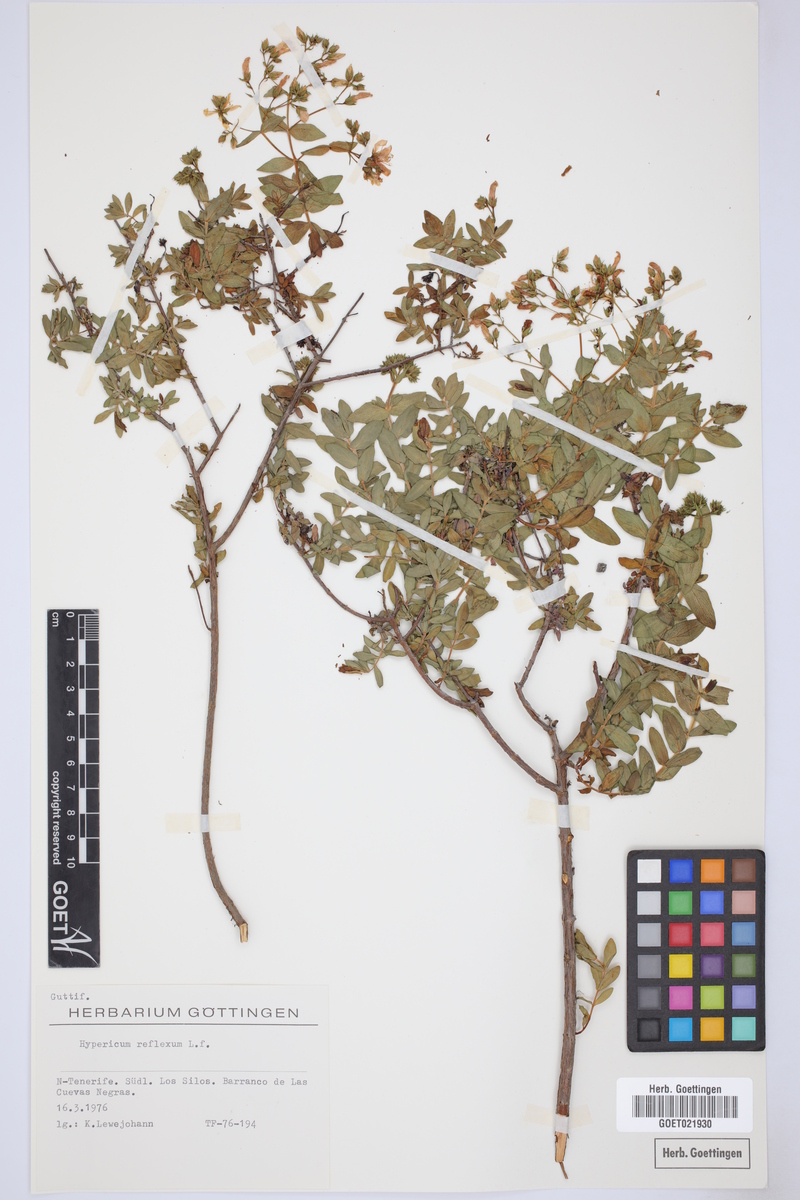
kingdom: Plantae
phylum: Tracheophyta
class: Magnoliopsida
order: Malpighiales
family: Hypericaceae
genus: Hypericum
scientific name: Hypericum reflexum
